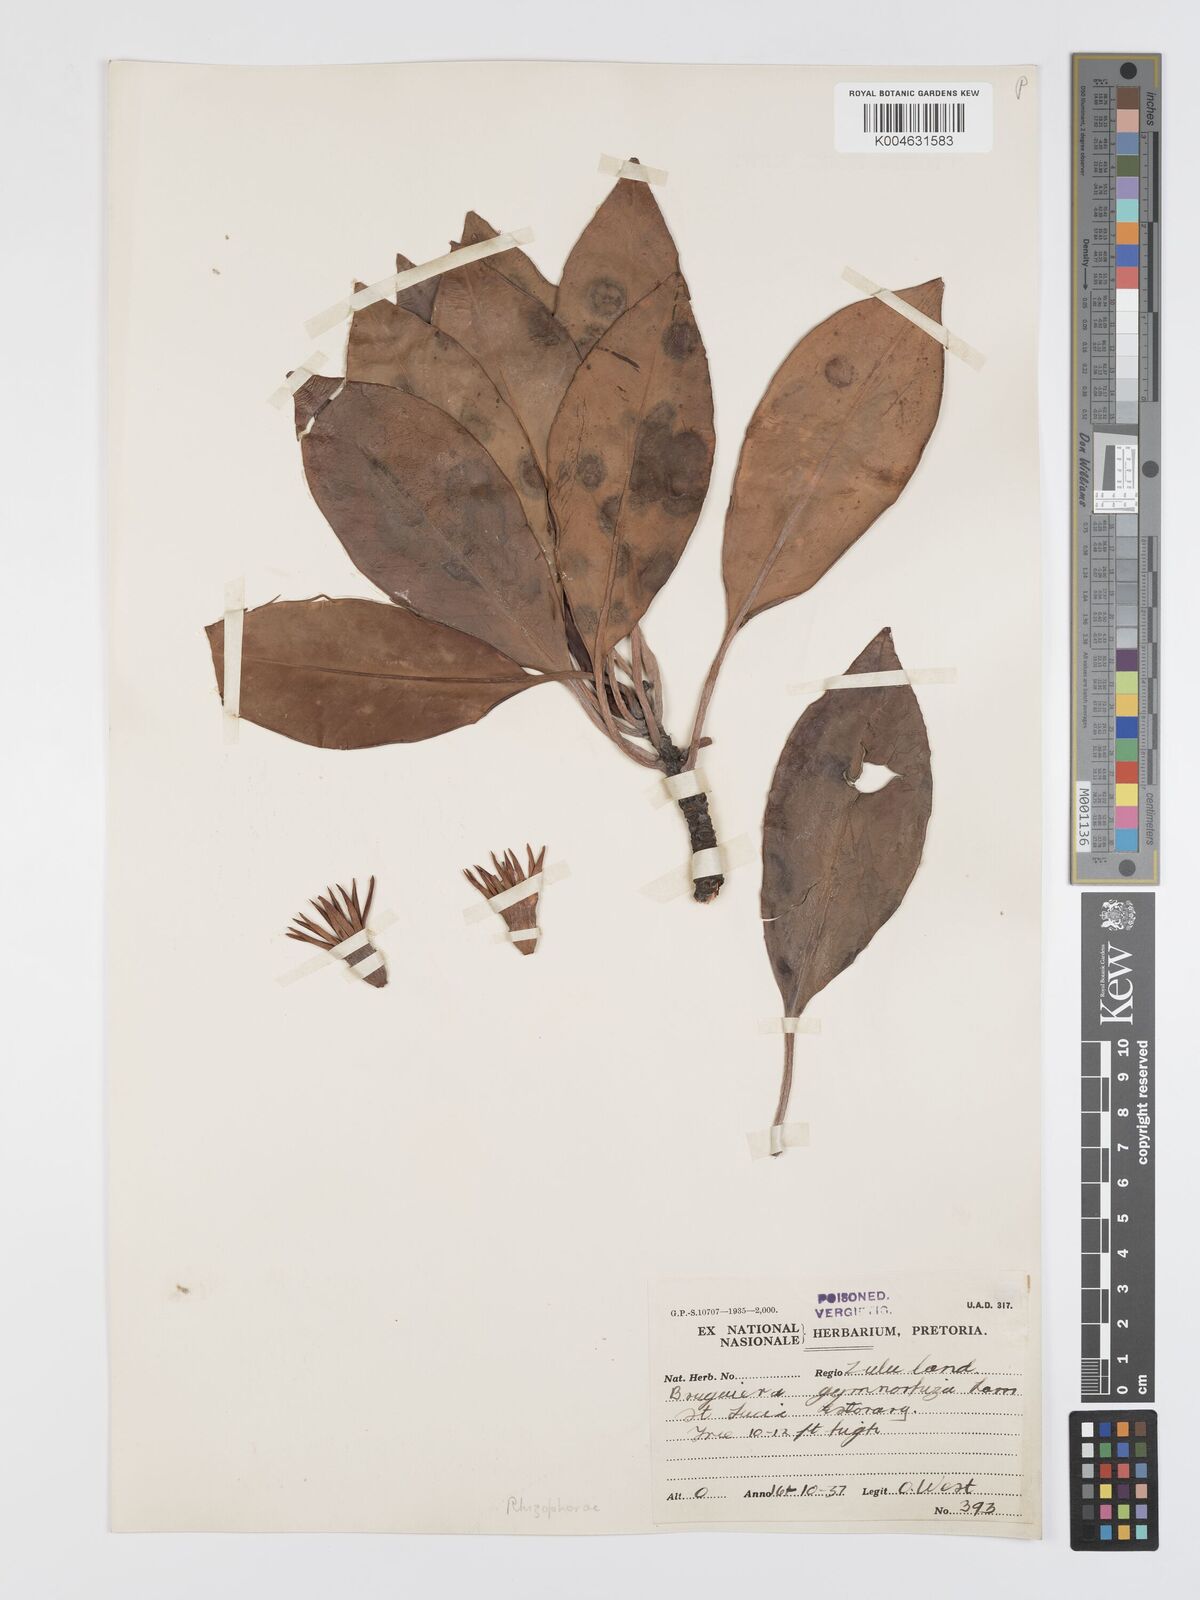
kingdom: Plantae
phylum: Tracheophyta
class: Magnoliopsida
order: Malpighiales
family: Rhizophoraceae
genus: Bruguiera
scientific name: Bruguiera
